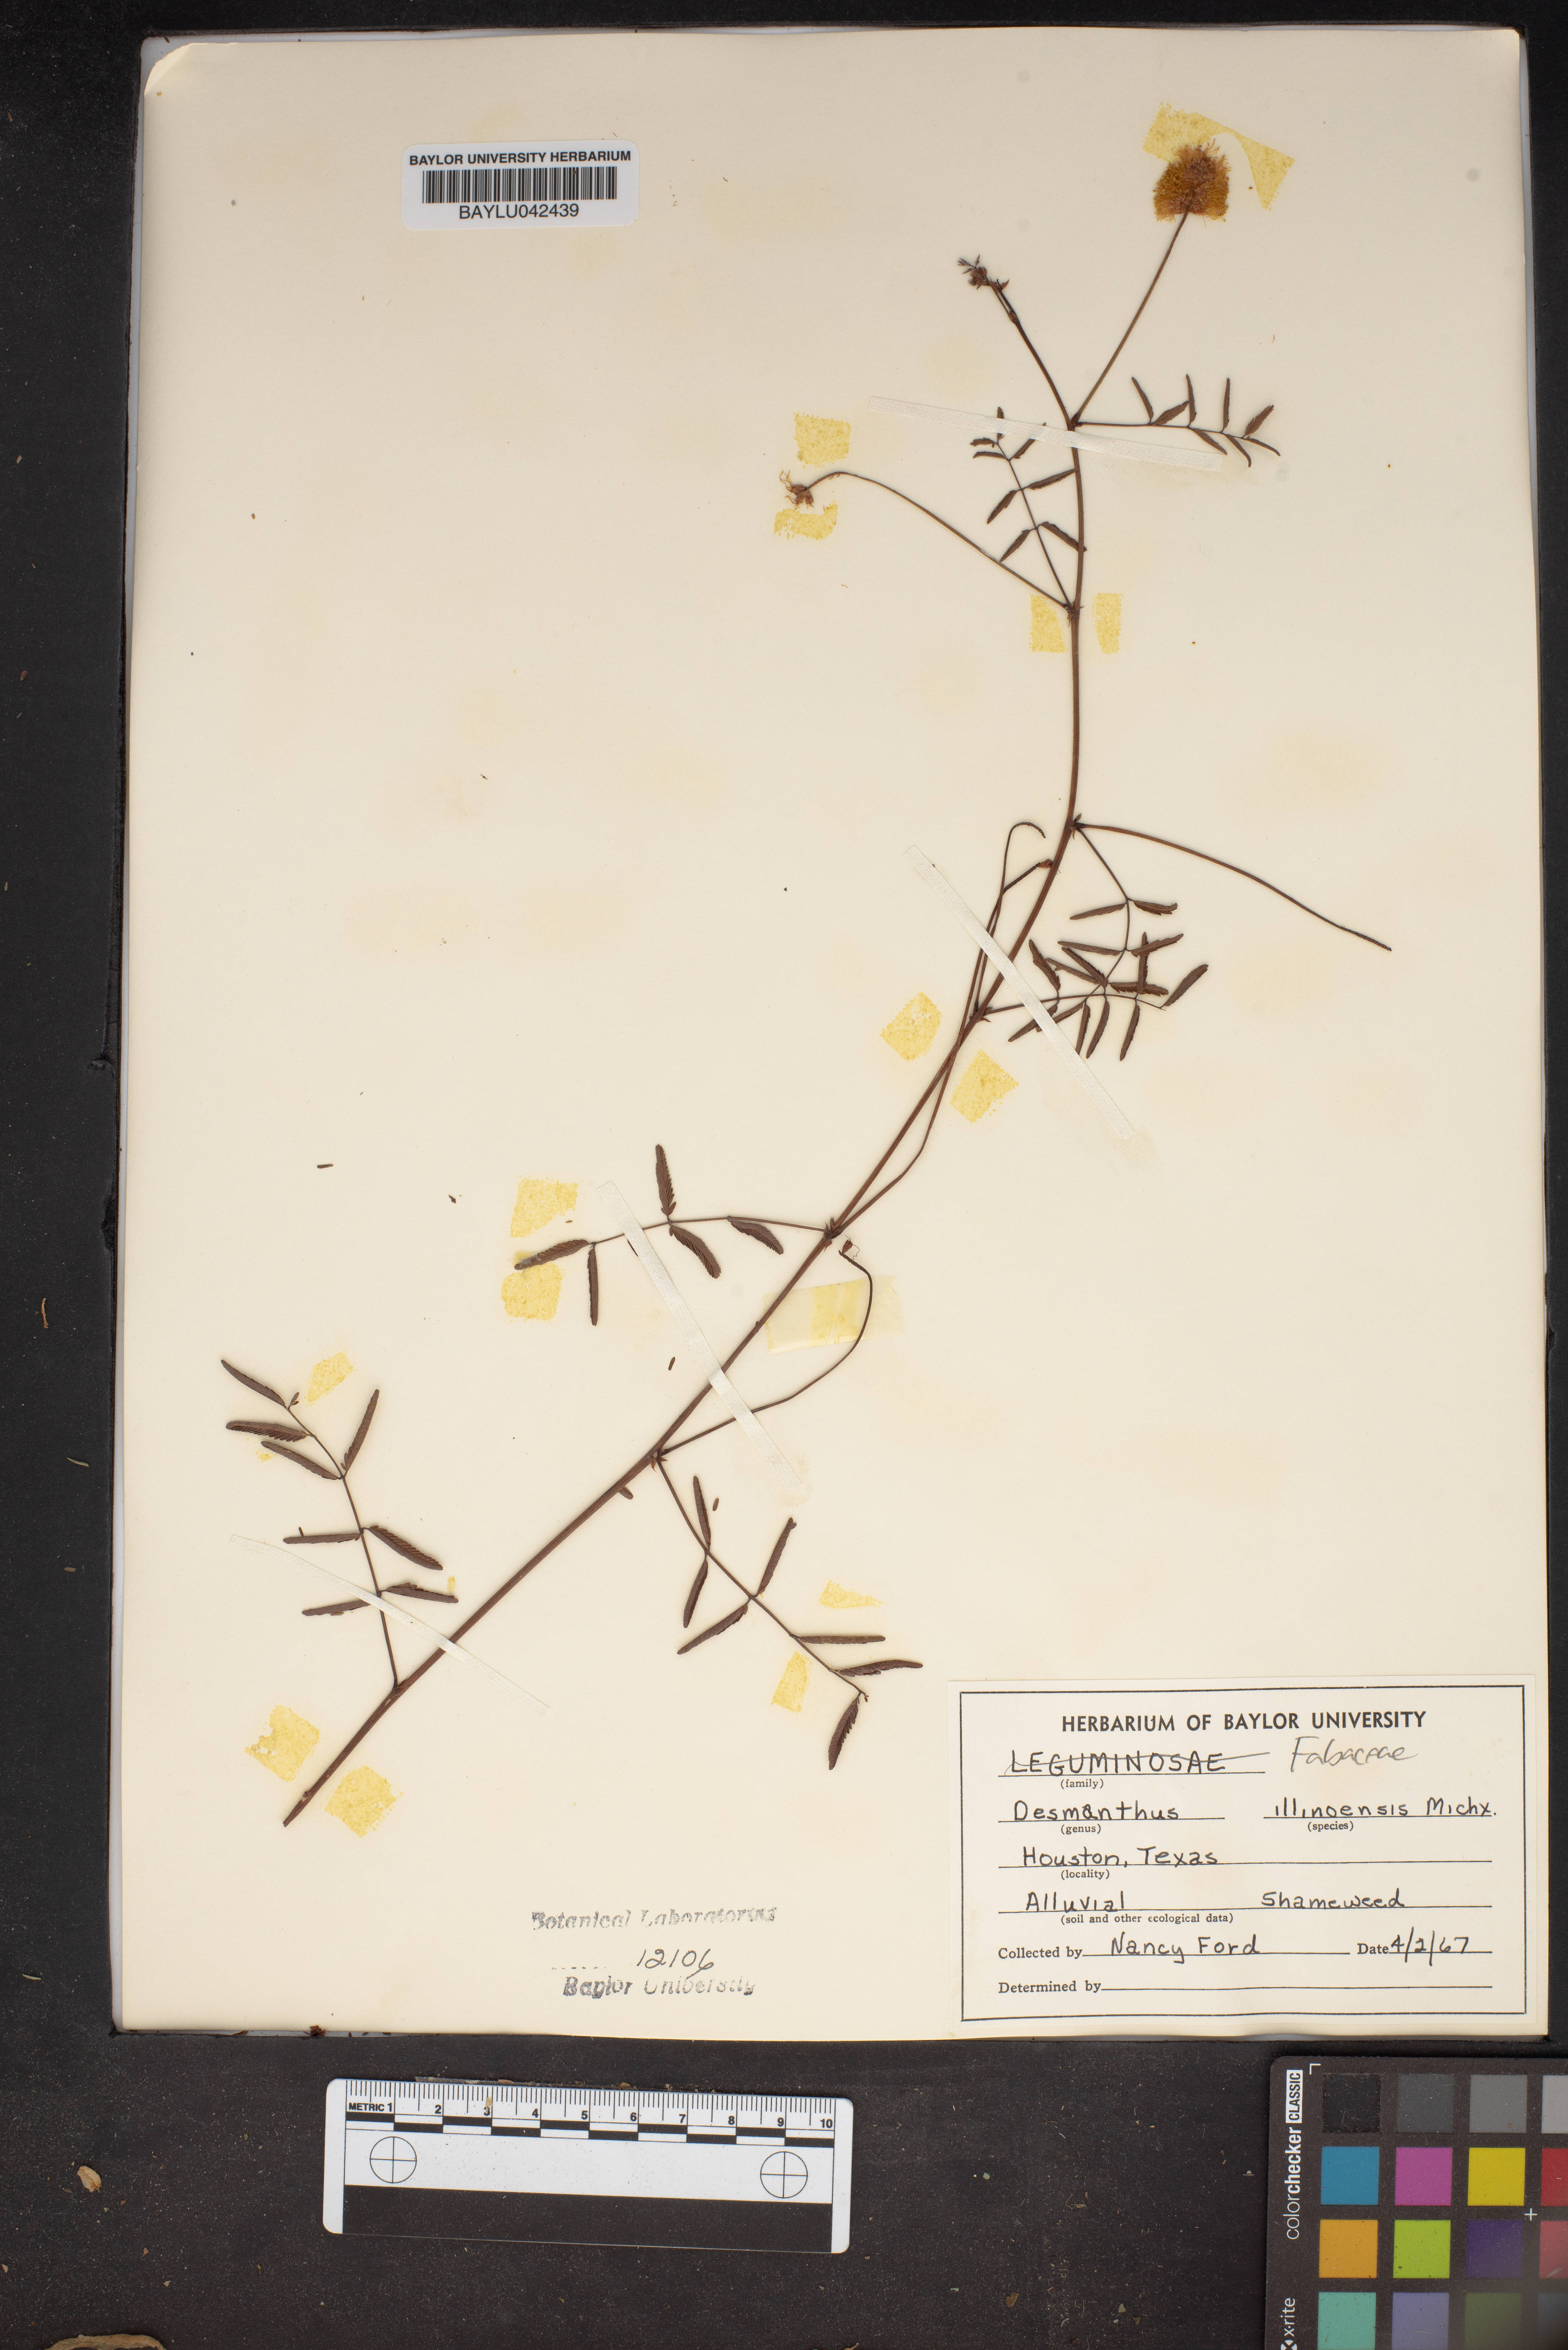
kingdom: Plantae
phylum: Tracheophyta
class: Magnoliopsida
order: Fabales
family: Fabaceae
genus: Desmanthus
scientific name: Desmanthus illinoensis
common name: Illinois bundle-flower
